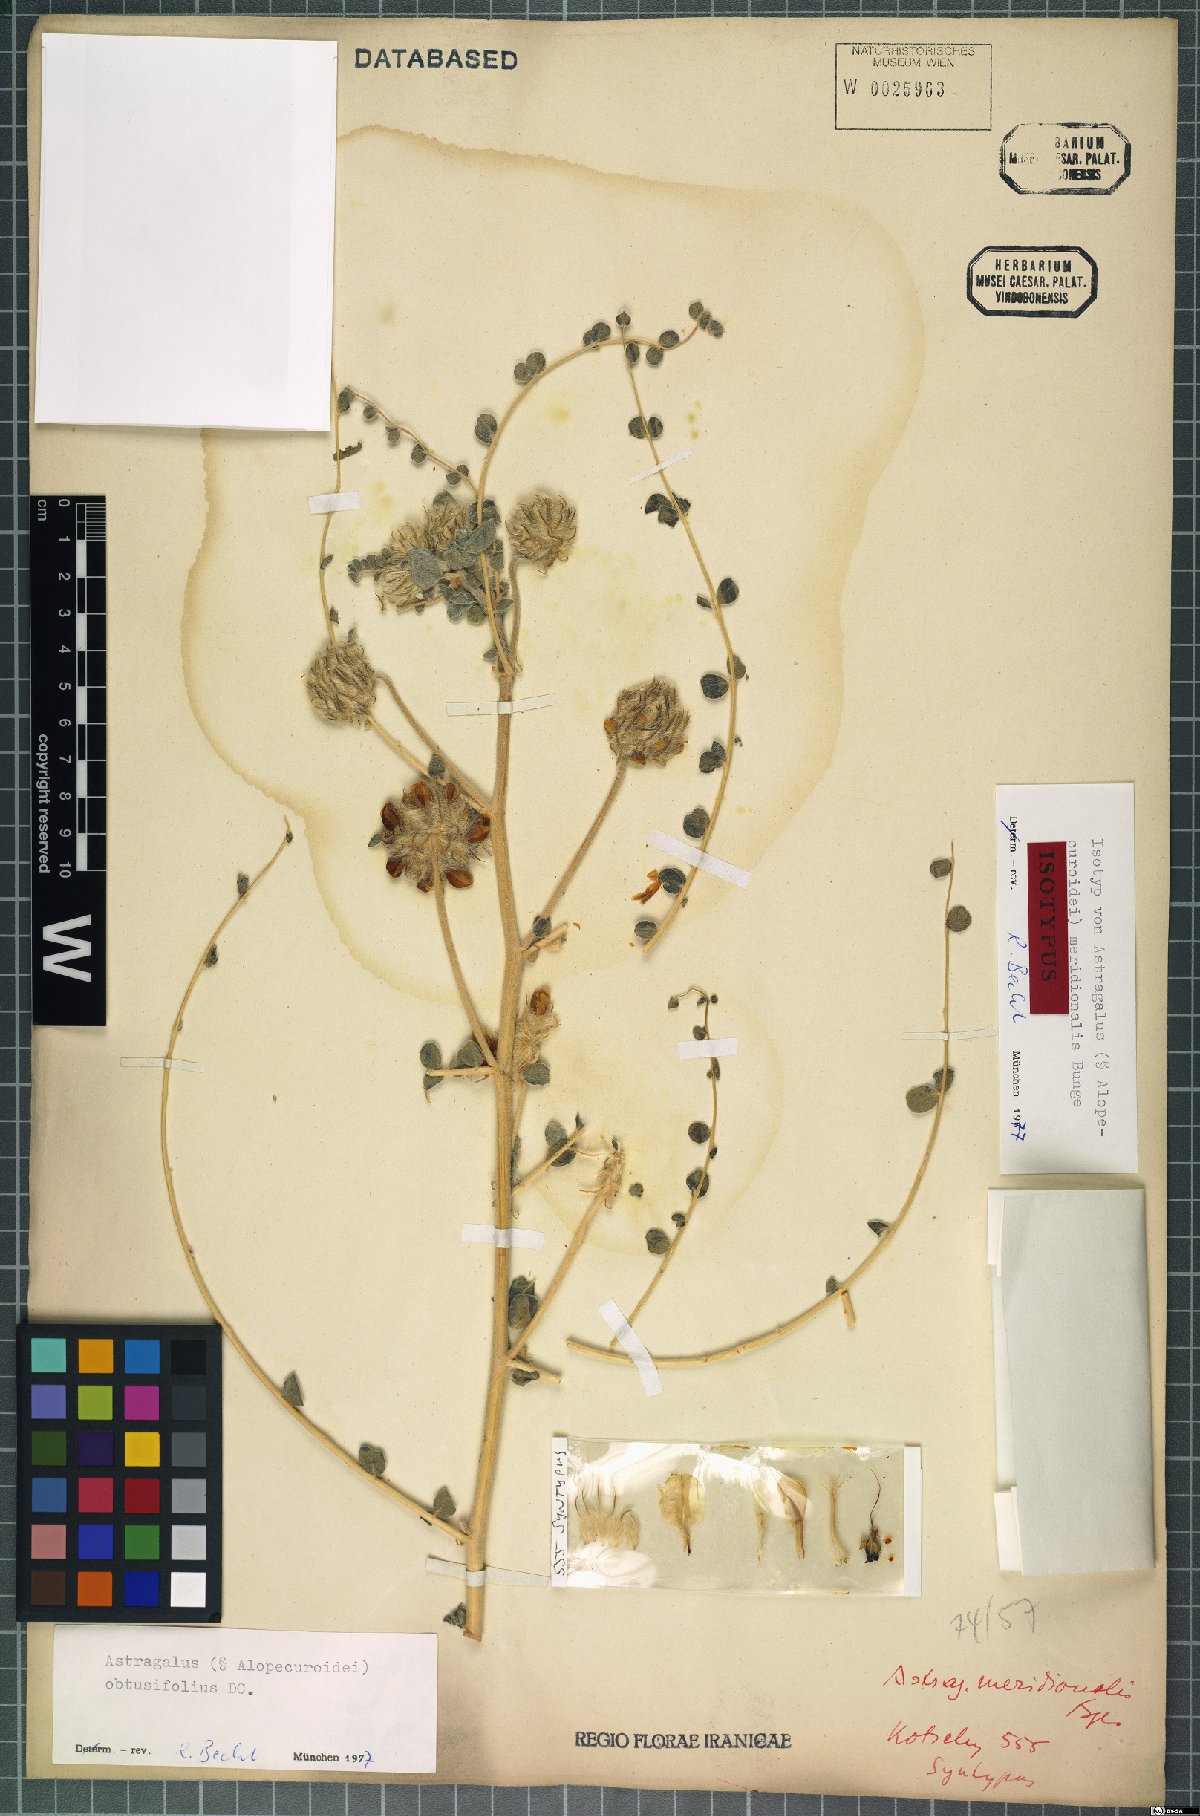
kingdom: Plantae
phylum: Tracheophyta
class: Magnoliopsida
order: Fabales
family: Fabaceae
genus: Astragalus
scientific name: Astragalus obtusifolius
